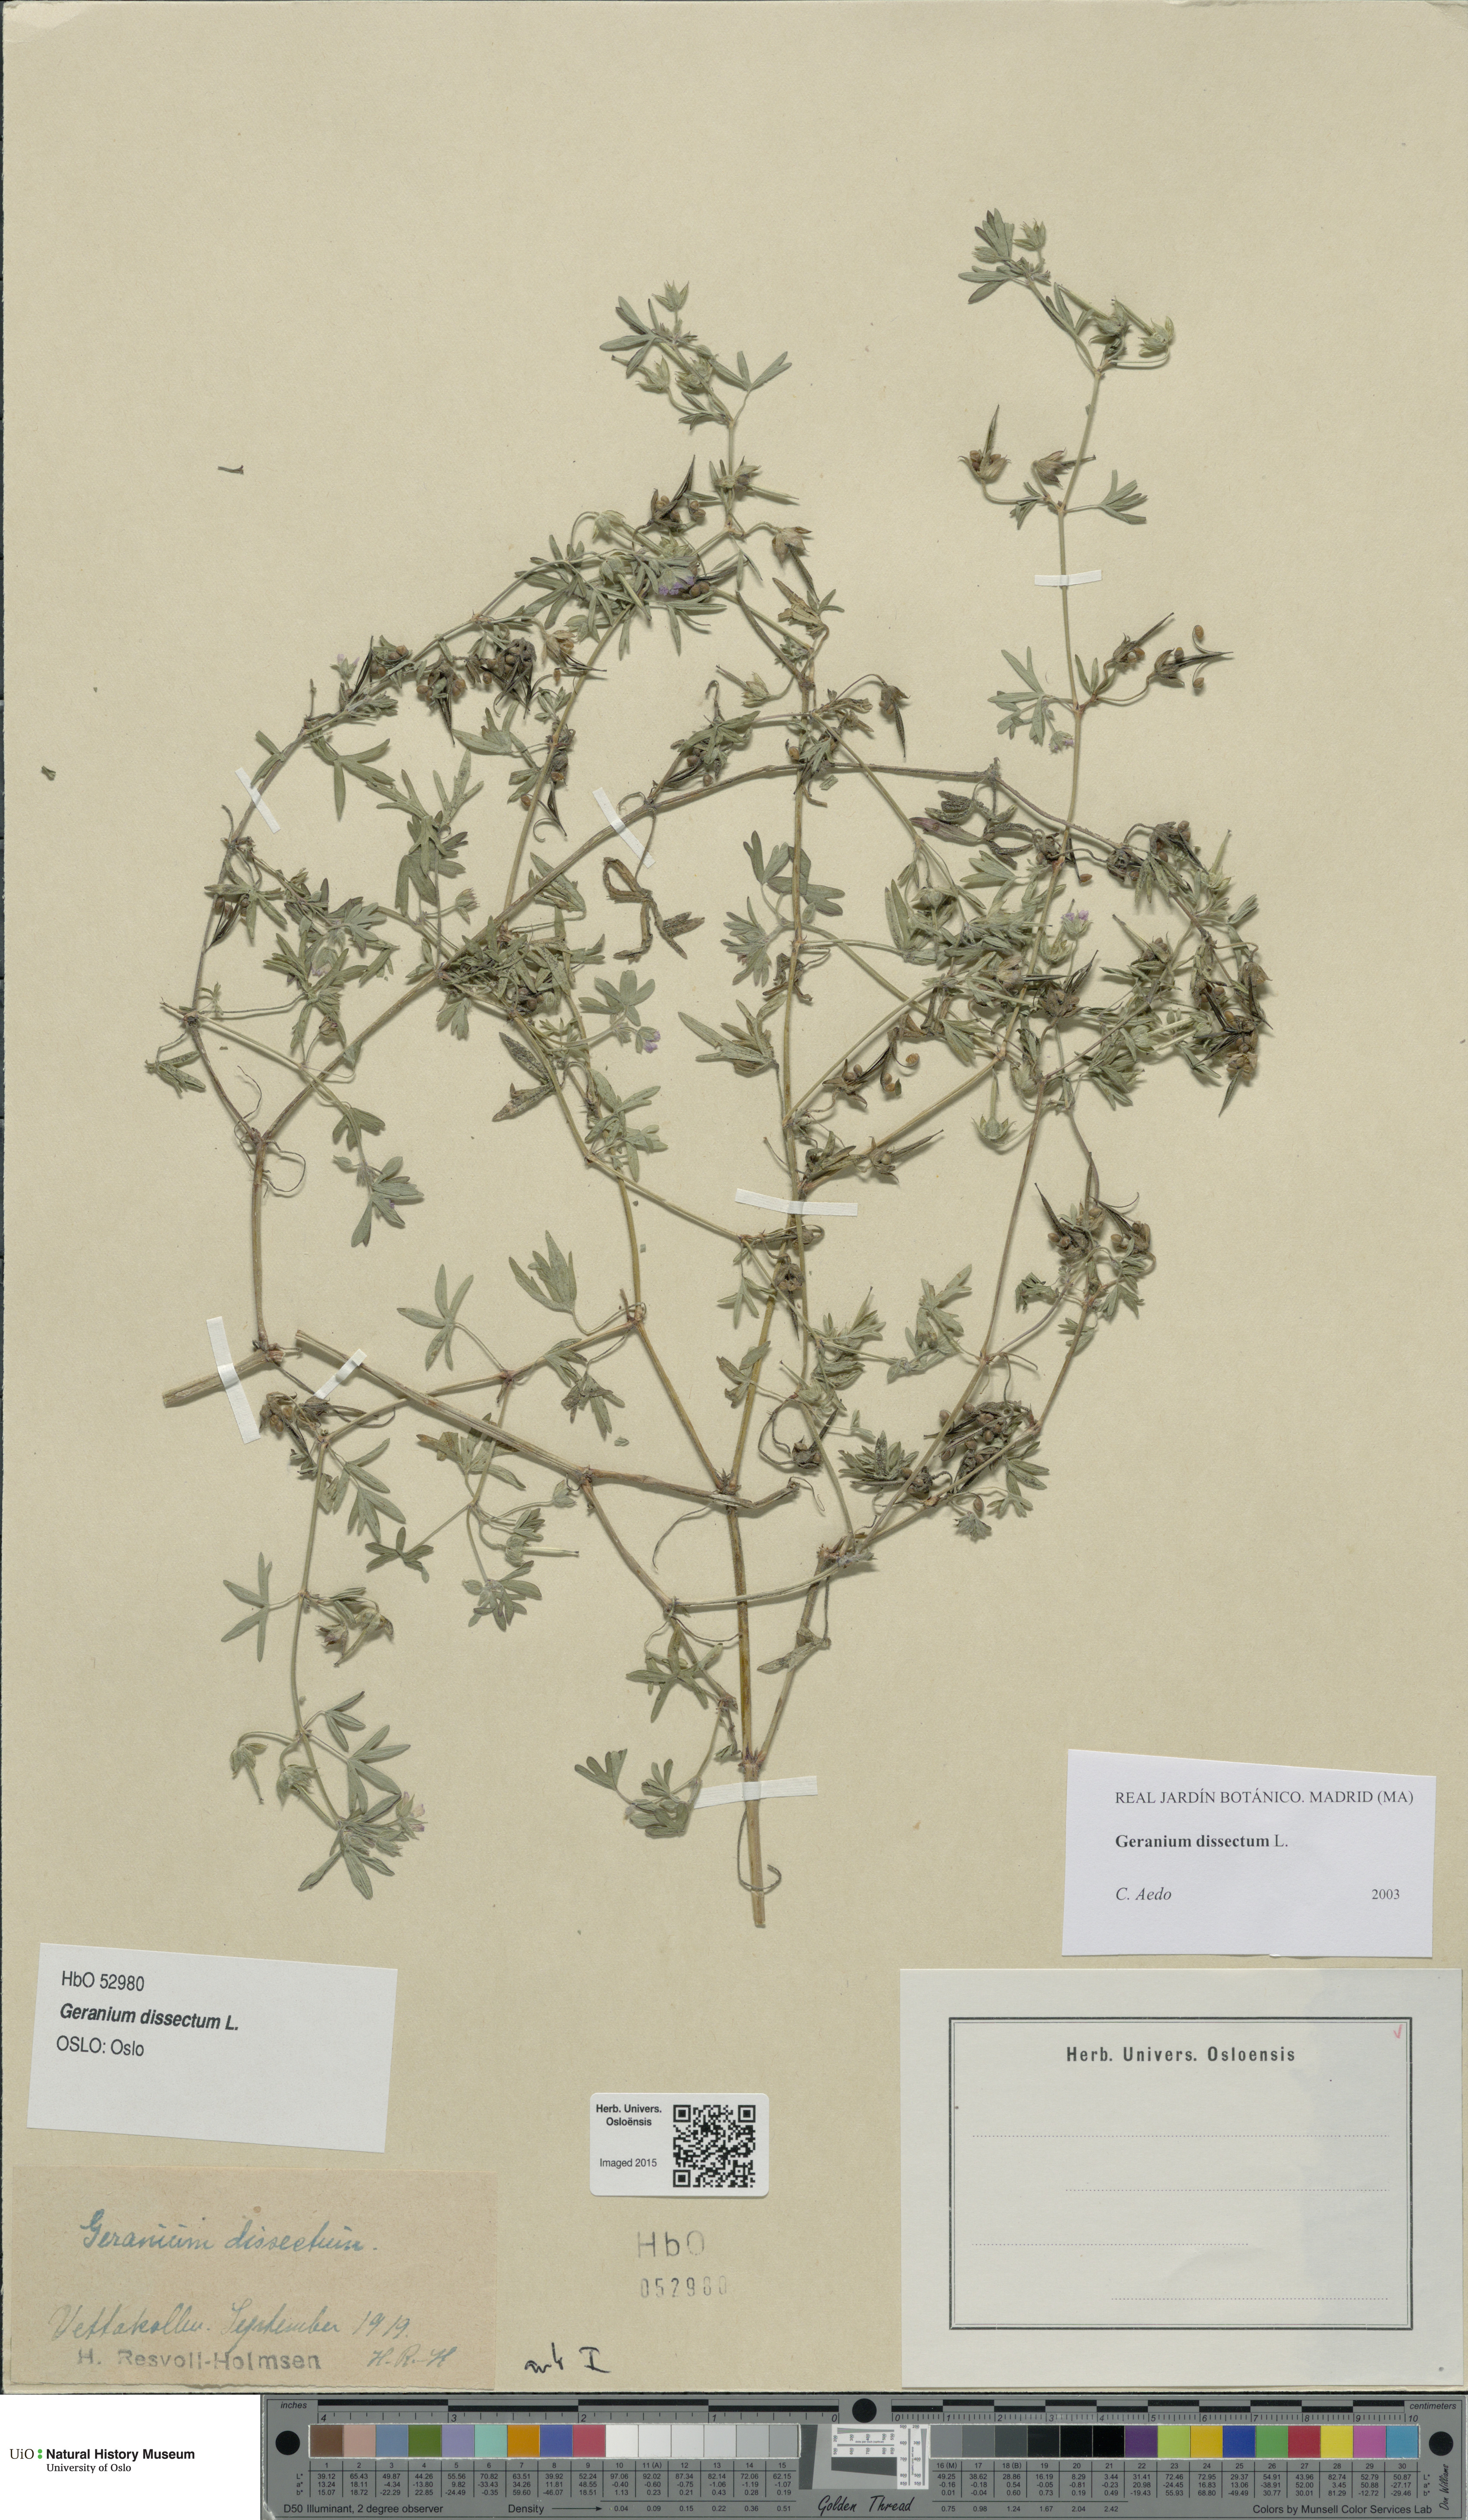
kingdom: Plantae
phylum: Tracheophyta
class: Magnoliopsida
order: Geraniales
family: Geraniaceae
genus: Geranium
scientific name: Geranium dissectum
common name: Cut-leaved crane's-bill
